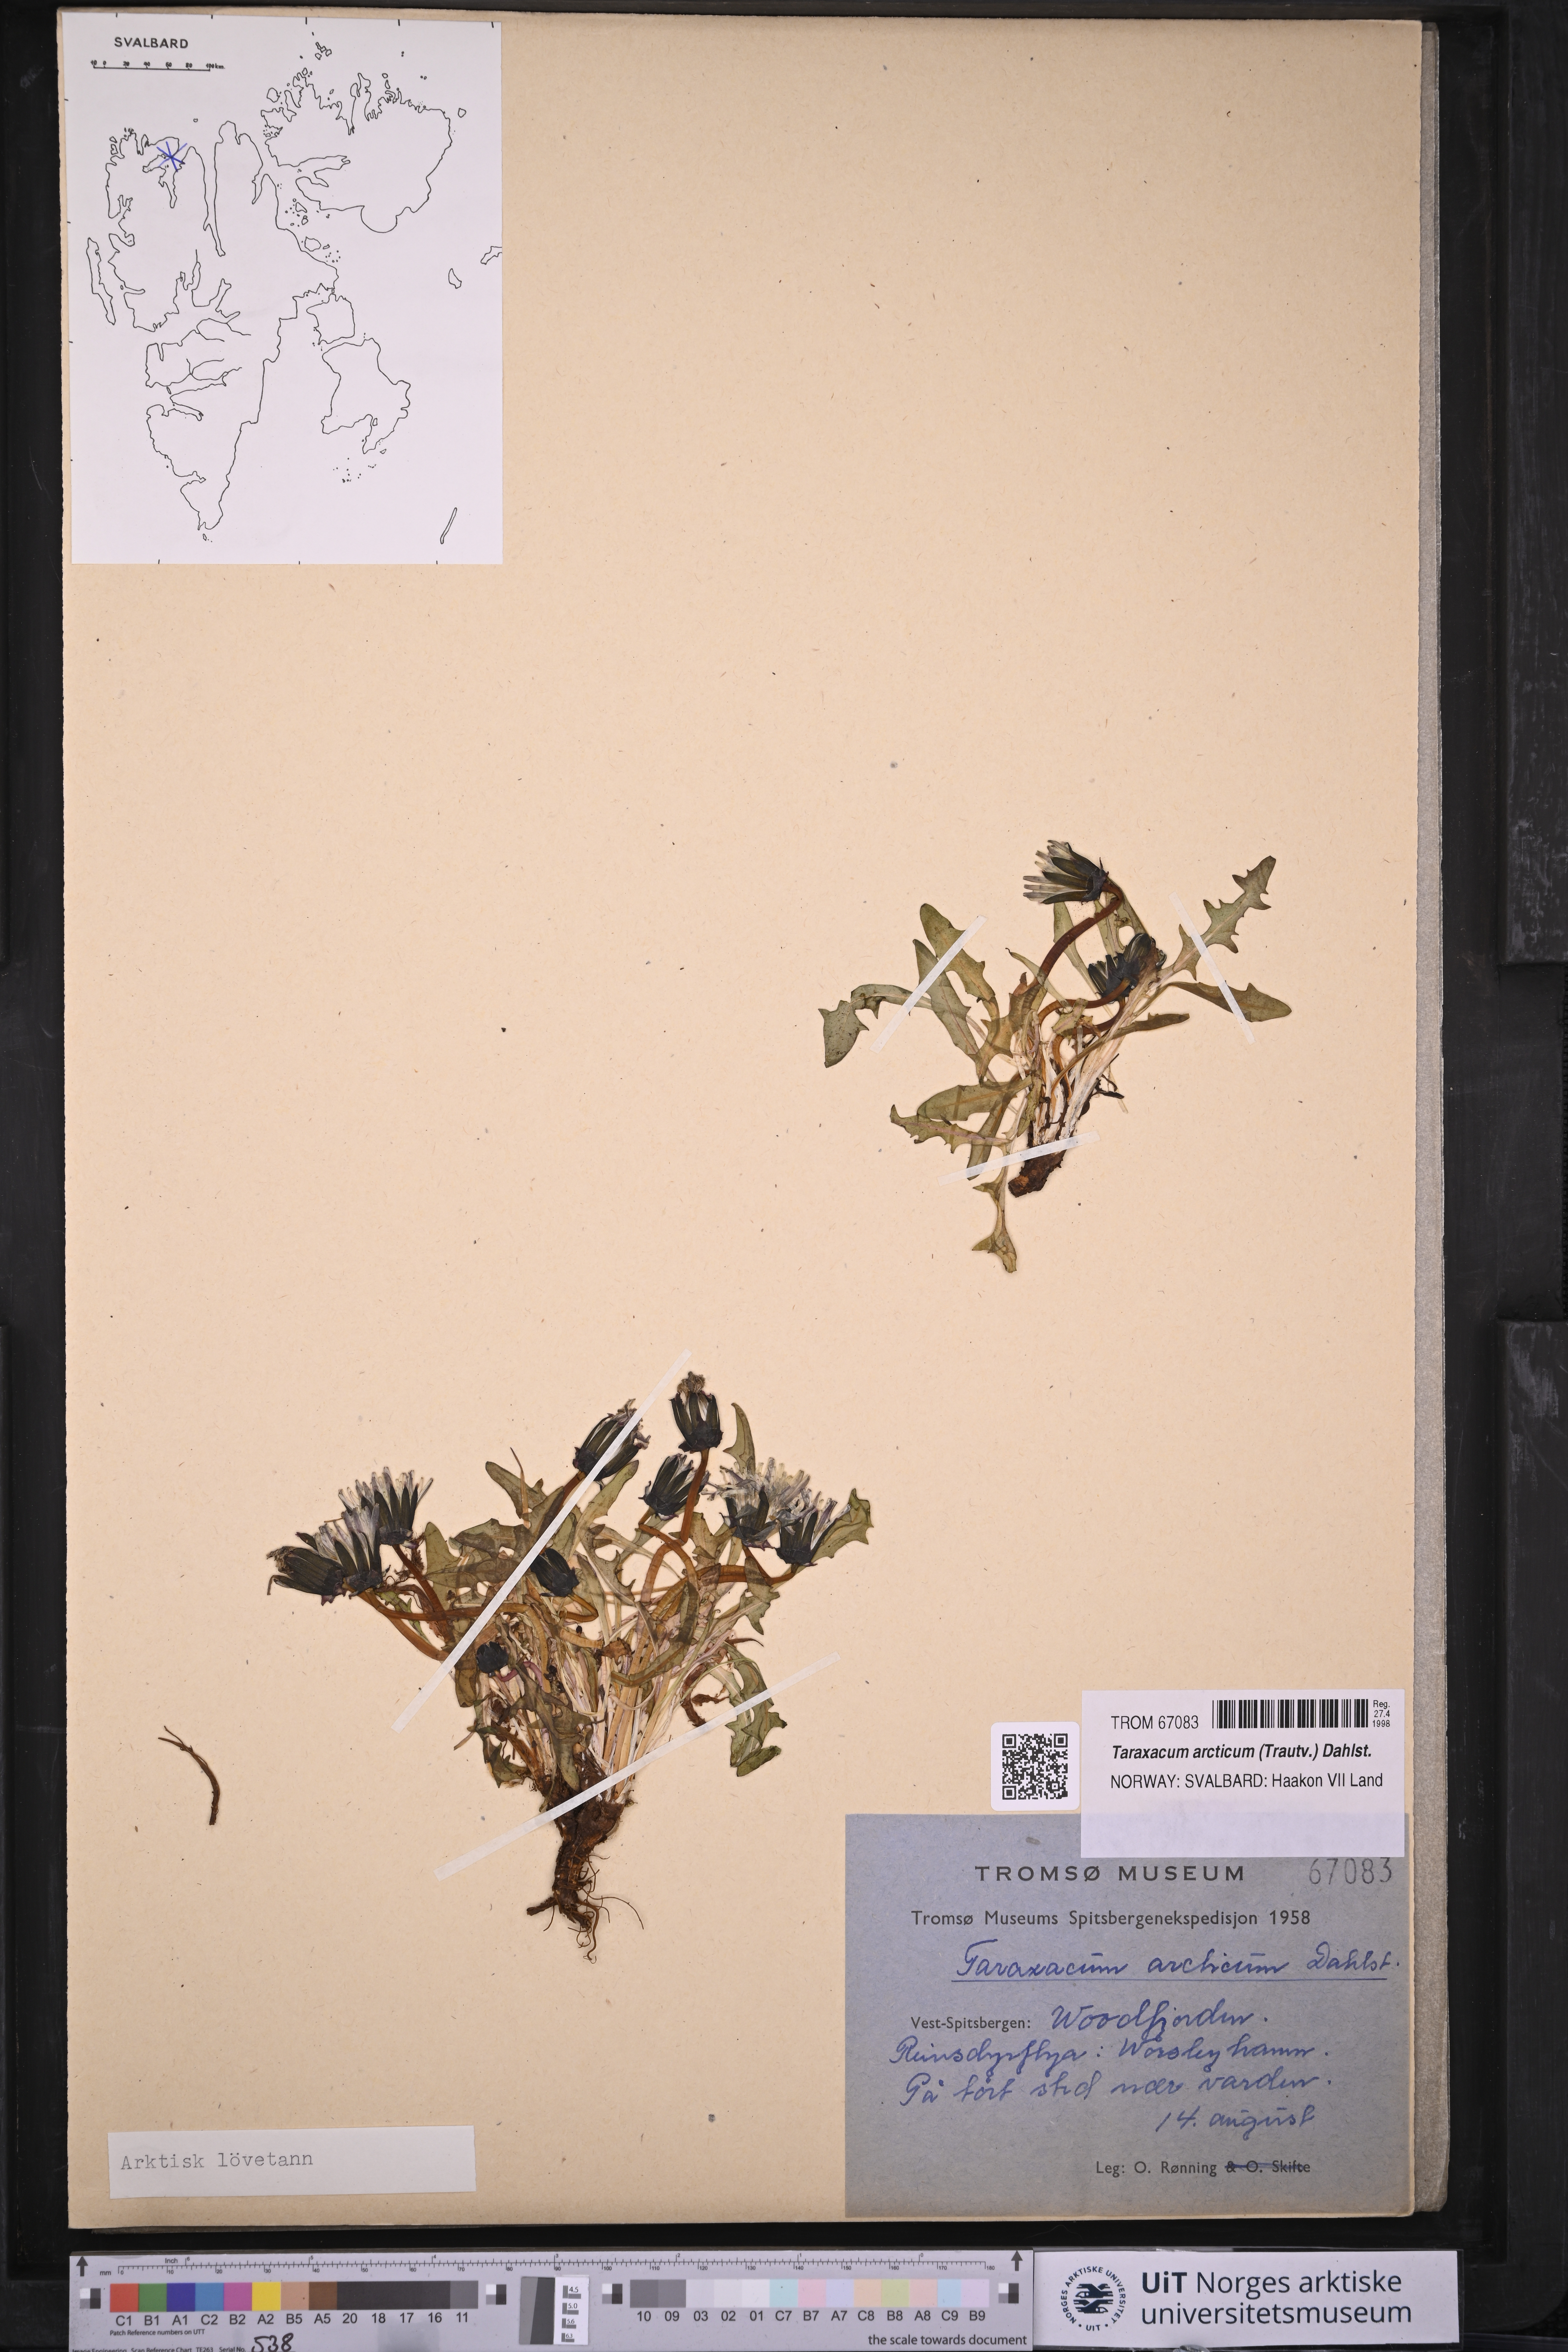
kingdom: Plantae
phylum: Tracheophyta
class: Magnoliopsida
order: Asterales
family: Asteraceae
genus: Taraxacum
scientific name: Taraxacum arcticum
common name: Arctic dandelion
